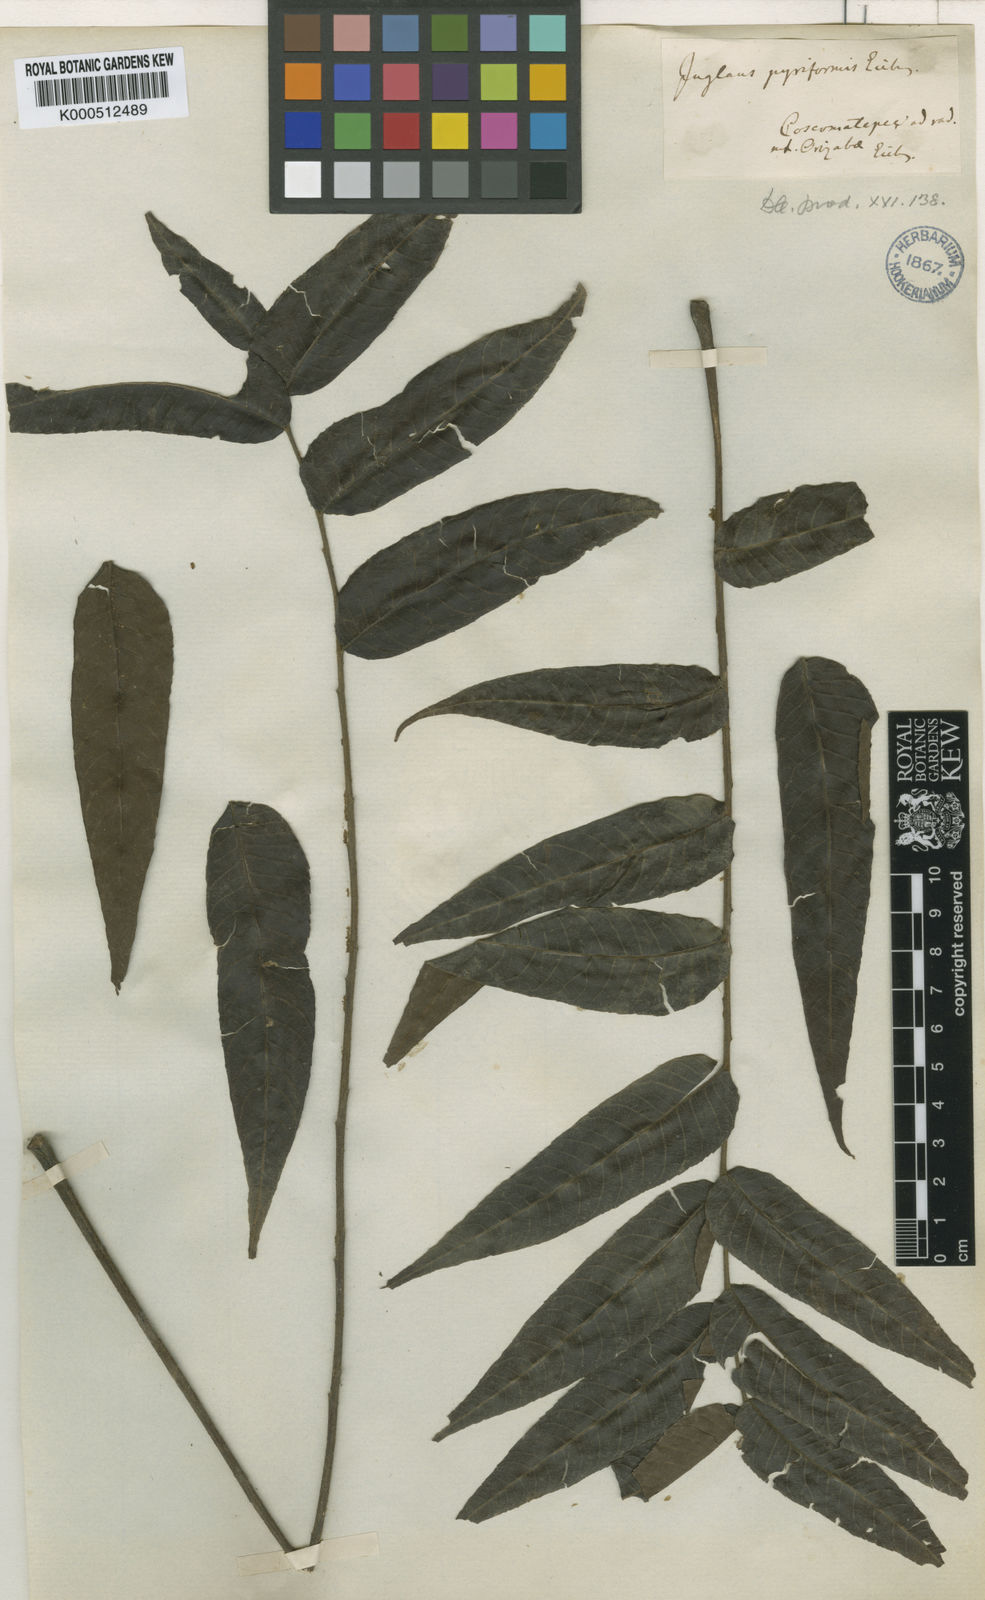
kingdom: Plantae
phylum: Tracheophyta
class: Magnoliopsida
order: Fagales
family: Juglandaceae
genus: Juglans
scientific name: Juglans pyriformis
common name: Walnuts
